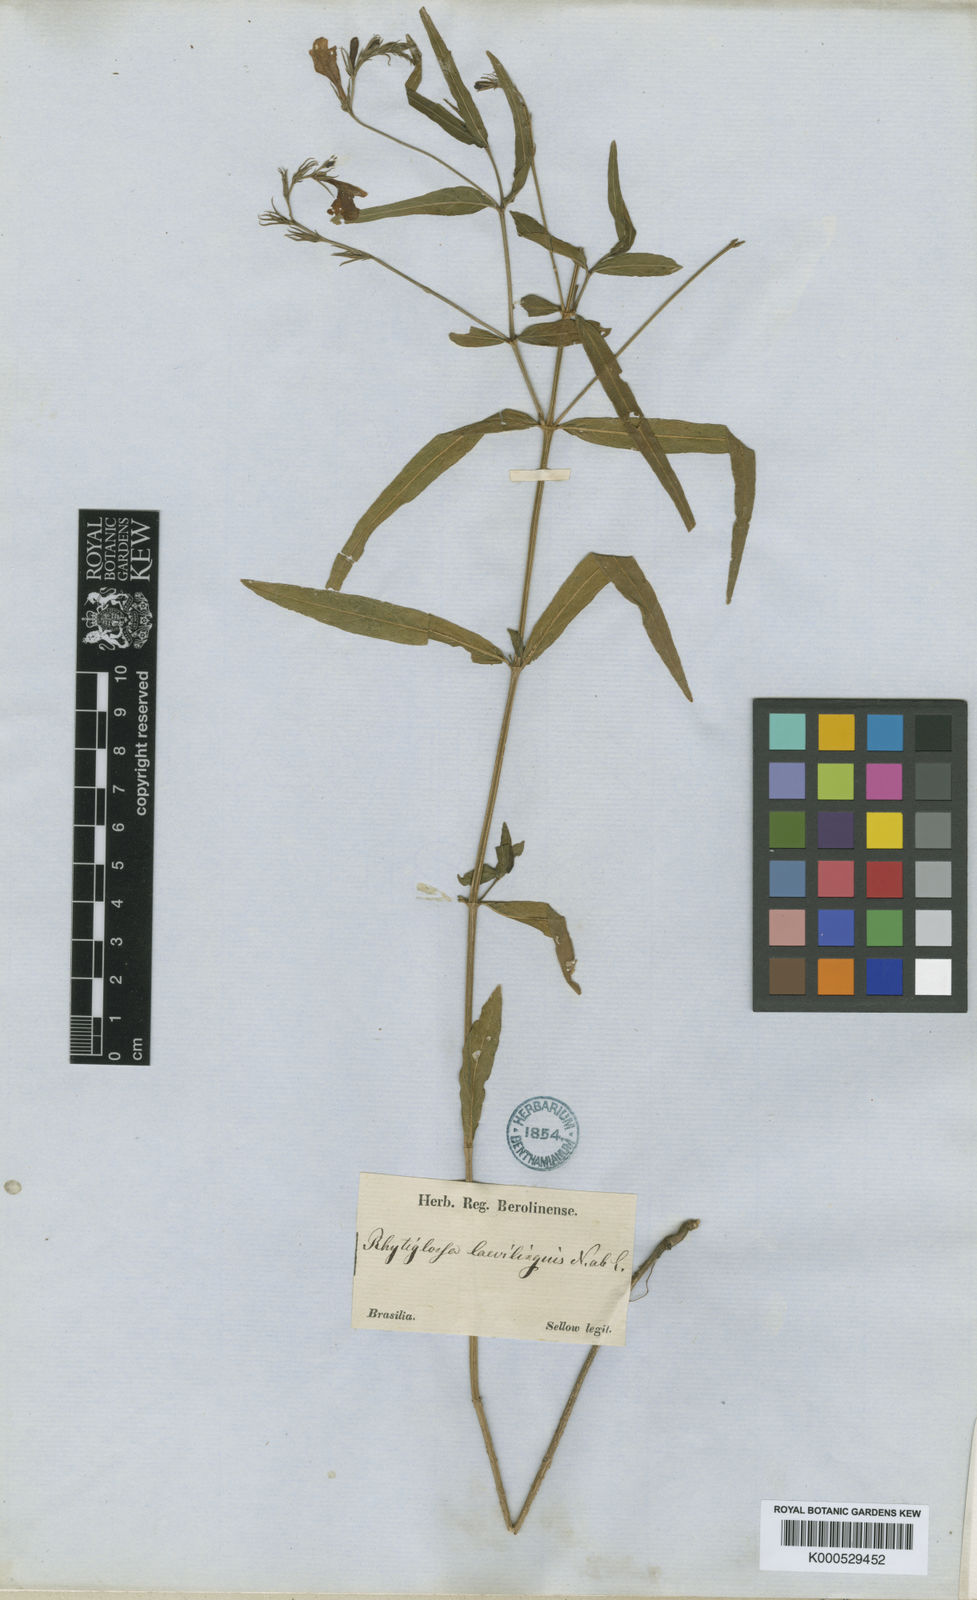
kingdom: Plantae
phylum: Tracheophyta
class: Magnoliopsida
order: Lamiales
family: Acanthaceae
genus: Dianthera
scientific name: Dianthera laevilinguis
